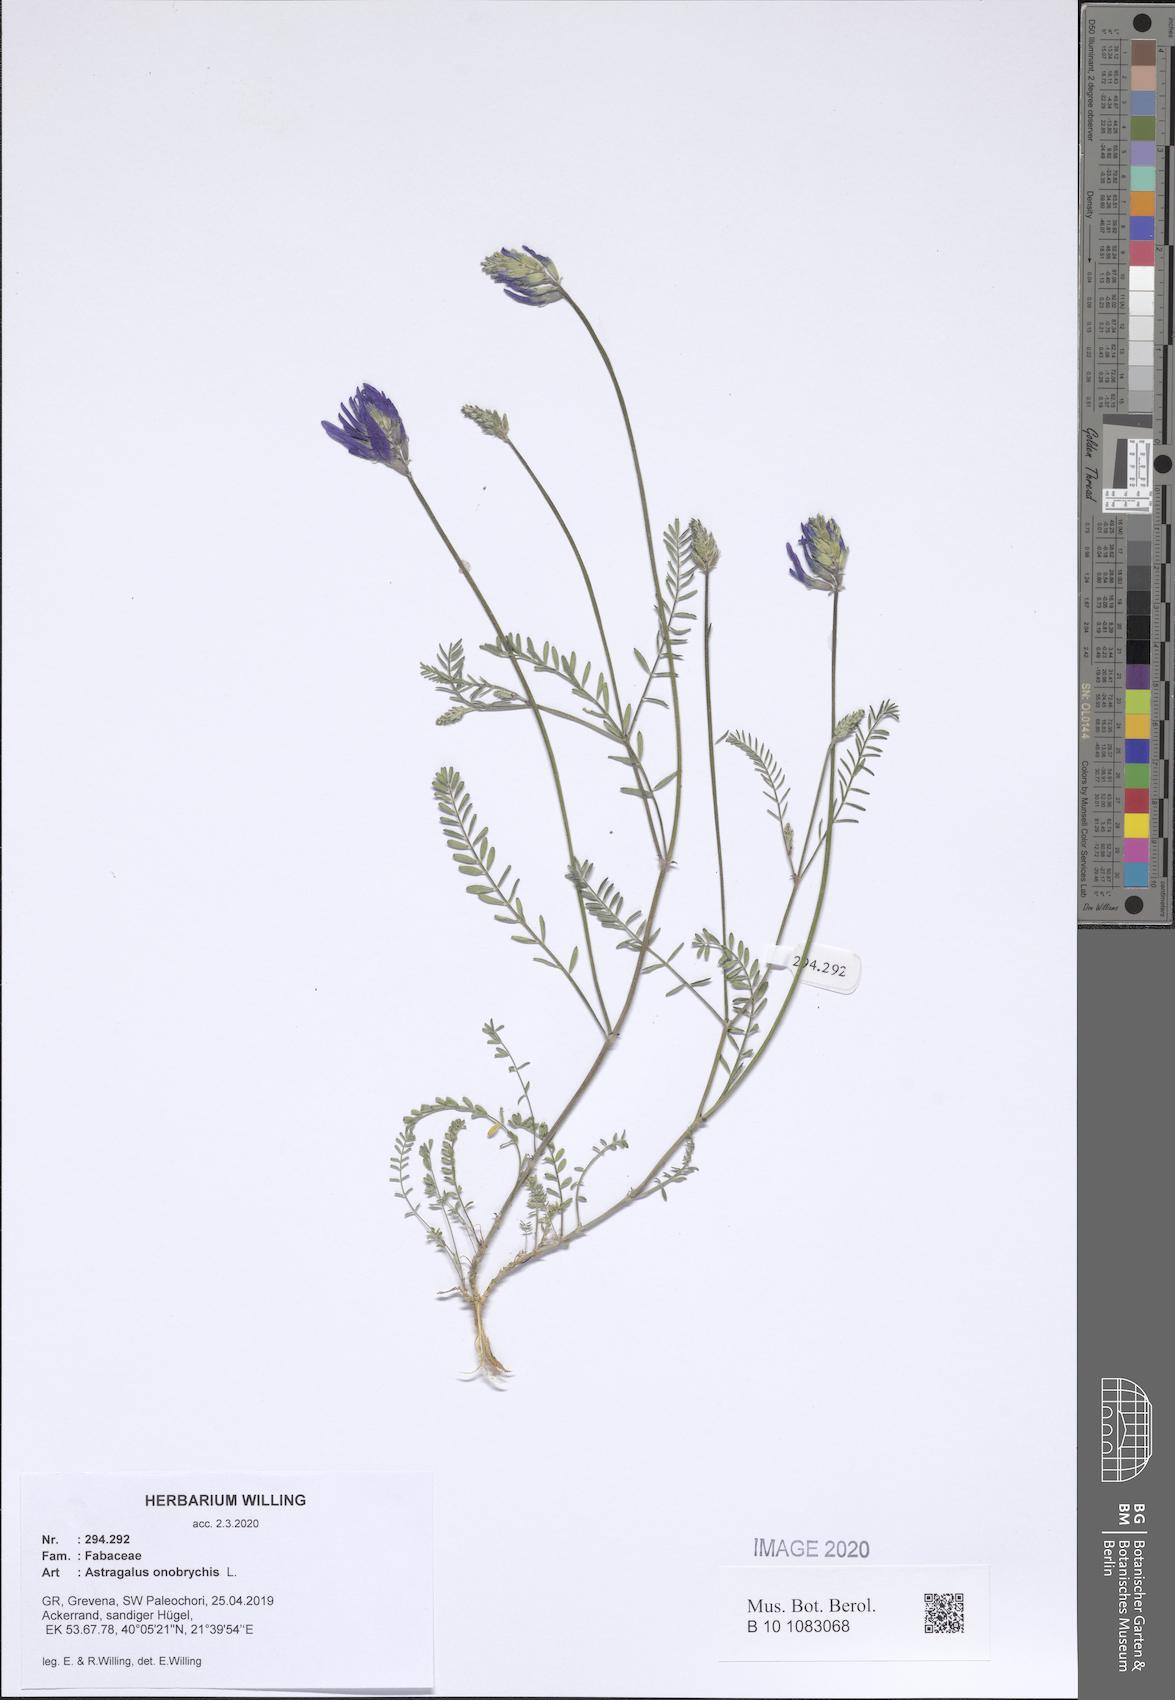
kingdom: Plantae
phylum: Tracheophyta
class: Magnoliopsida
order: Fabales
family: Fabaceae
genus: Astragalus
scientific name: Astragalus onobrychis
